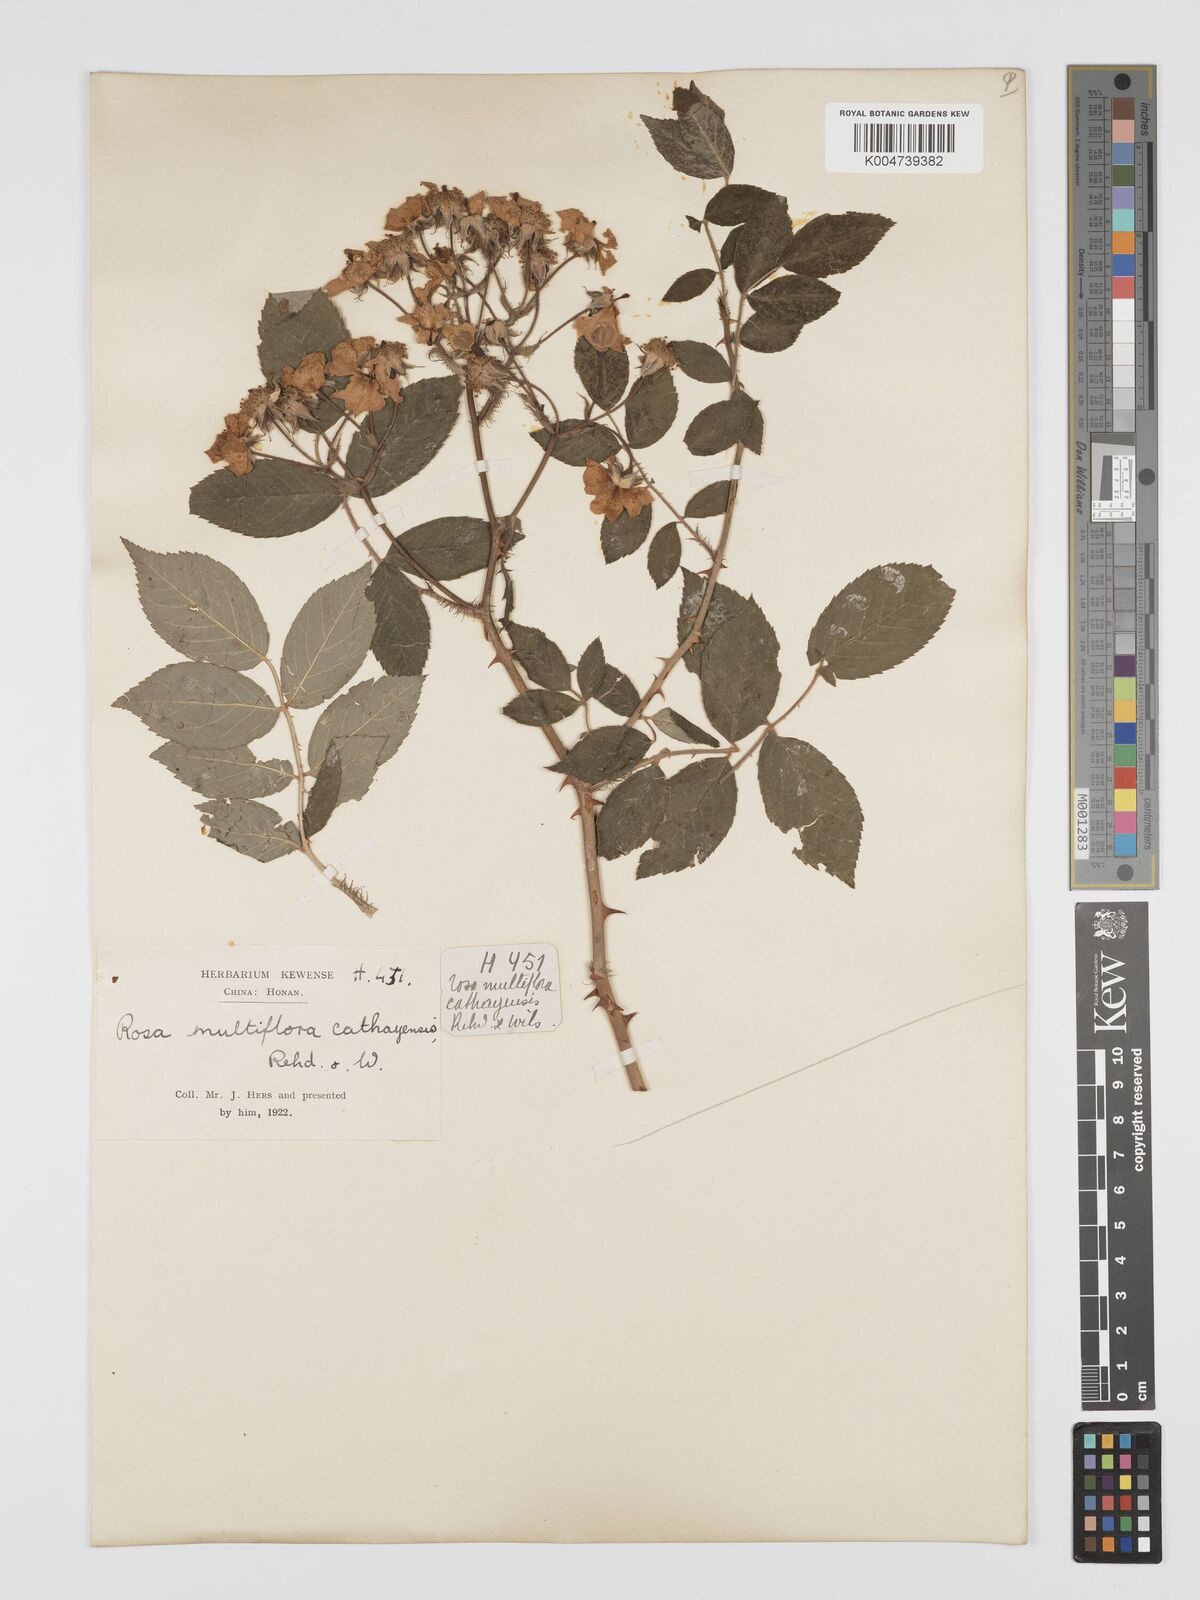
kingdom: Plantae
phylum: Tracheophyta
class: Magnoliopsida
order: Rosales
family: Rosaceae
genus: Rosa
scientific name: Rosa multiflora
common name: Multiflora rose
